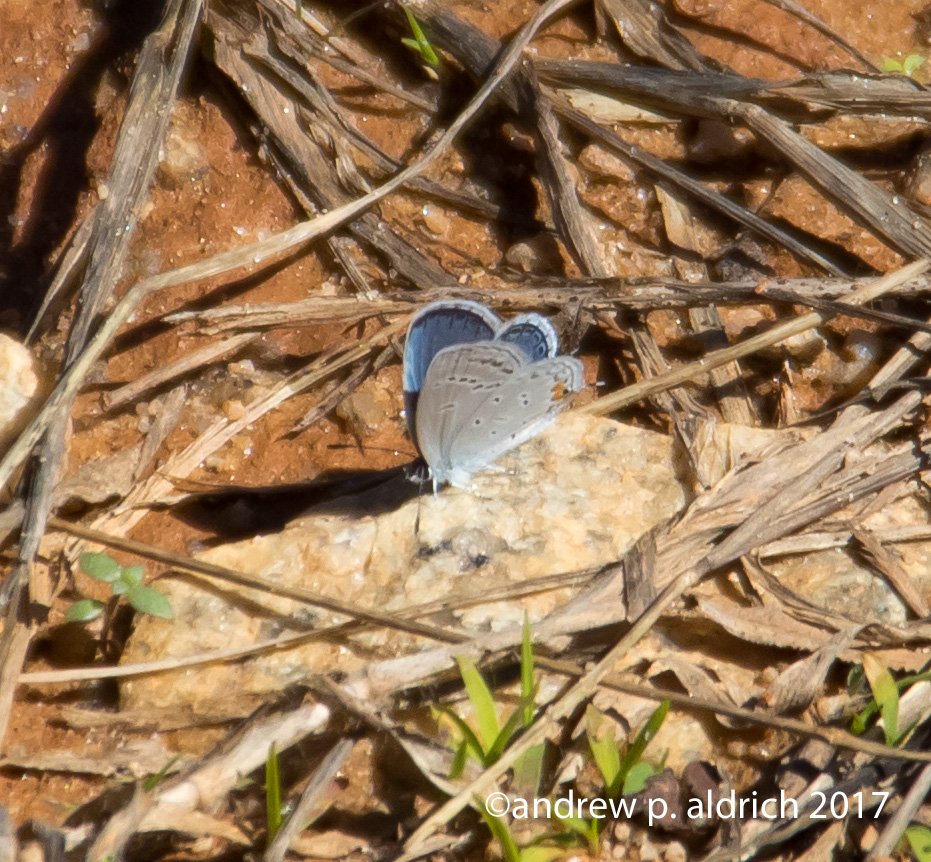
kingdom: Animalia
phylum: Arthropoda
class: Insecta
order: Lepidoptera
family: Lycaenidae
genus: Elkalyce
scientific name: Elkalyce comyntas
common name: Eastern Tailed-Blue
